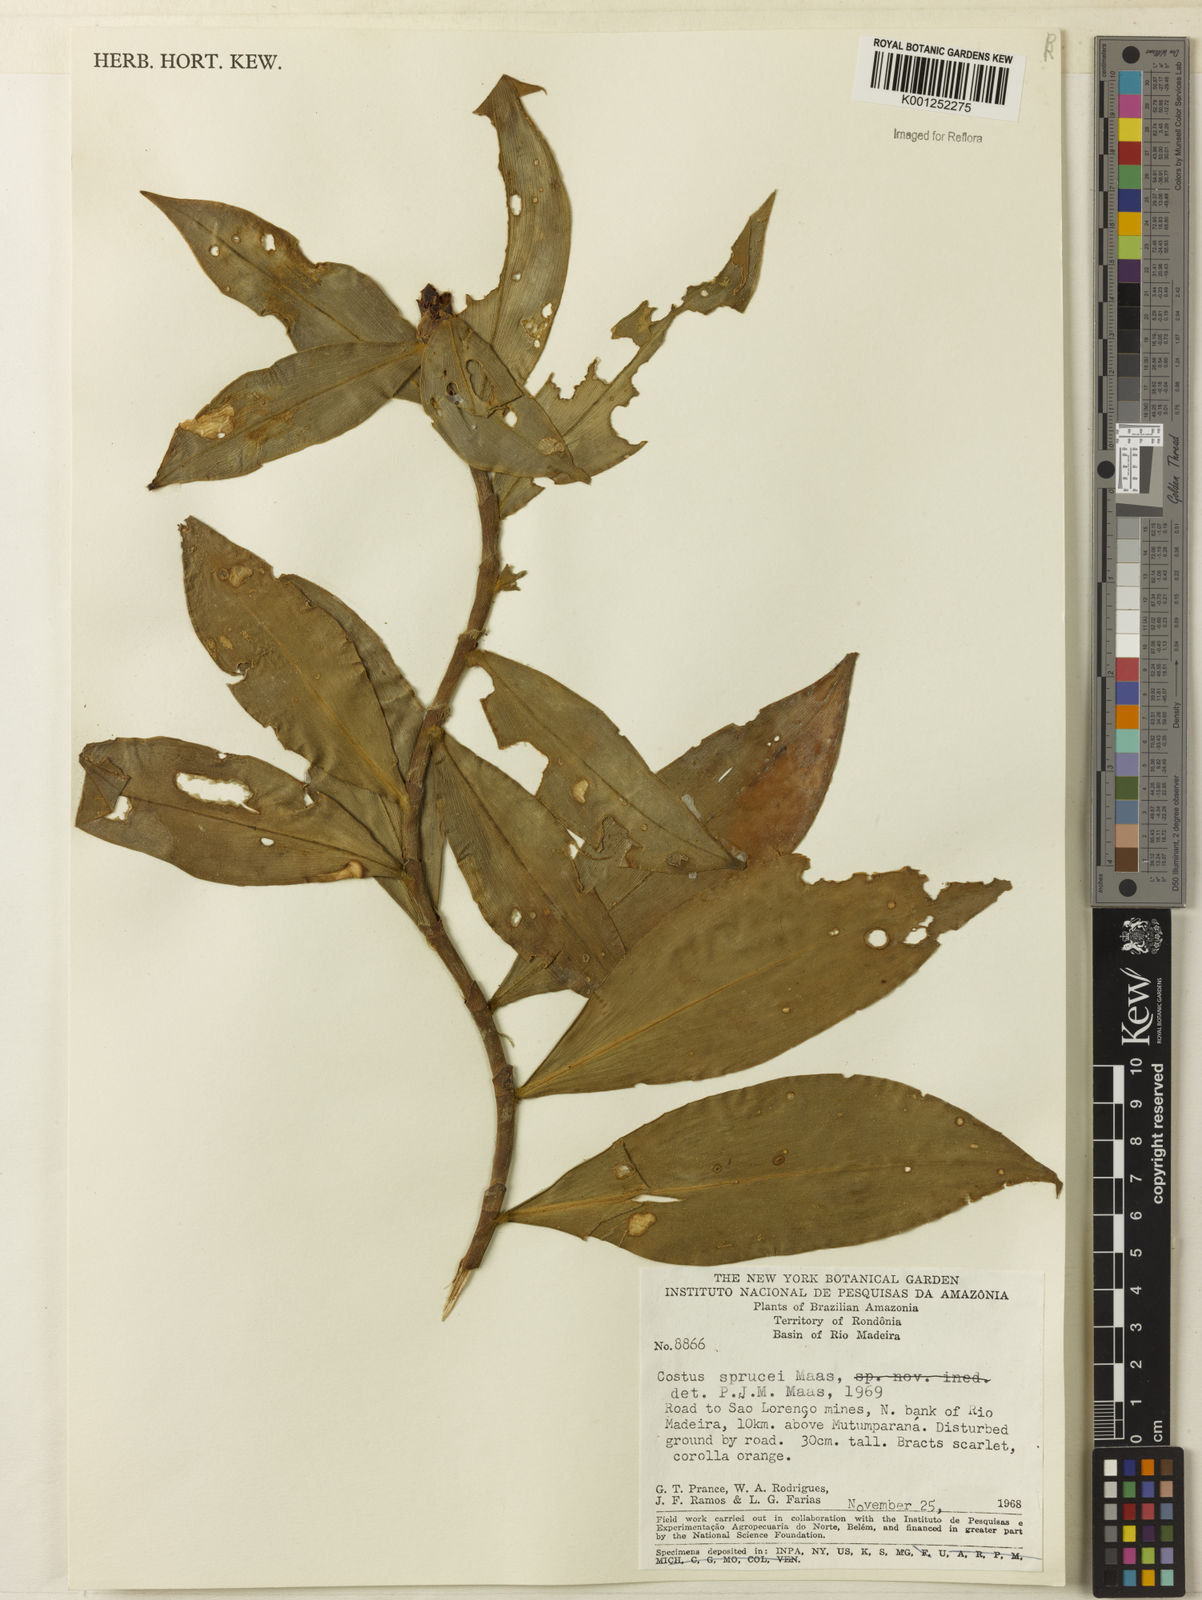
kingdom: Plantae
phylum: Tracheophyta
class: Liliopsida
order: Zingiberales
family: Costaceae
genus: Costus
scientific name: Costus sprucei
